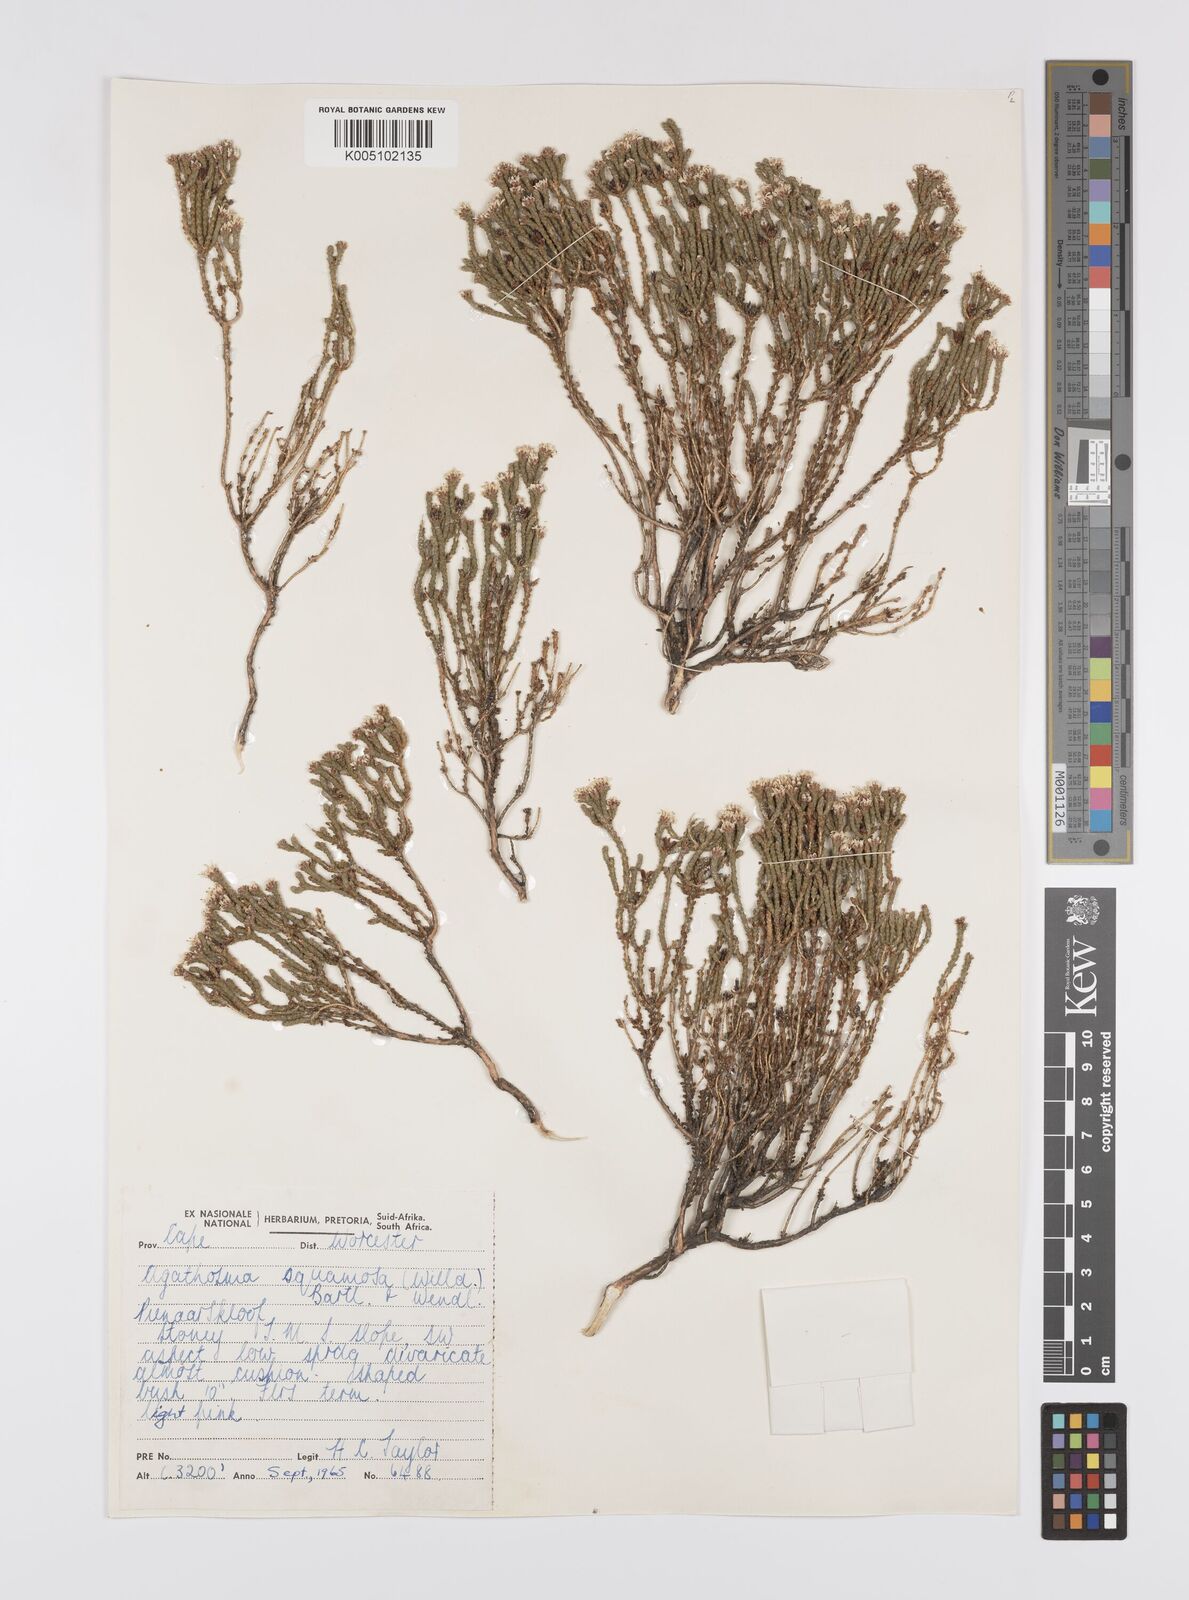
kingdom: Plantae
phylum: Tracheophyta
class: Magnoliopsida
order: Sapindales
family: Rutaceae
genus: Agathosma
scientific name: Agathosma squamosa
